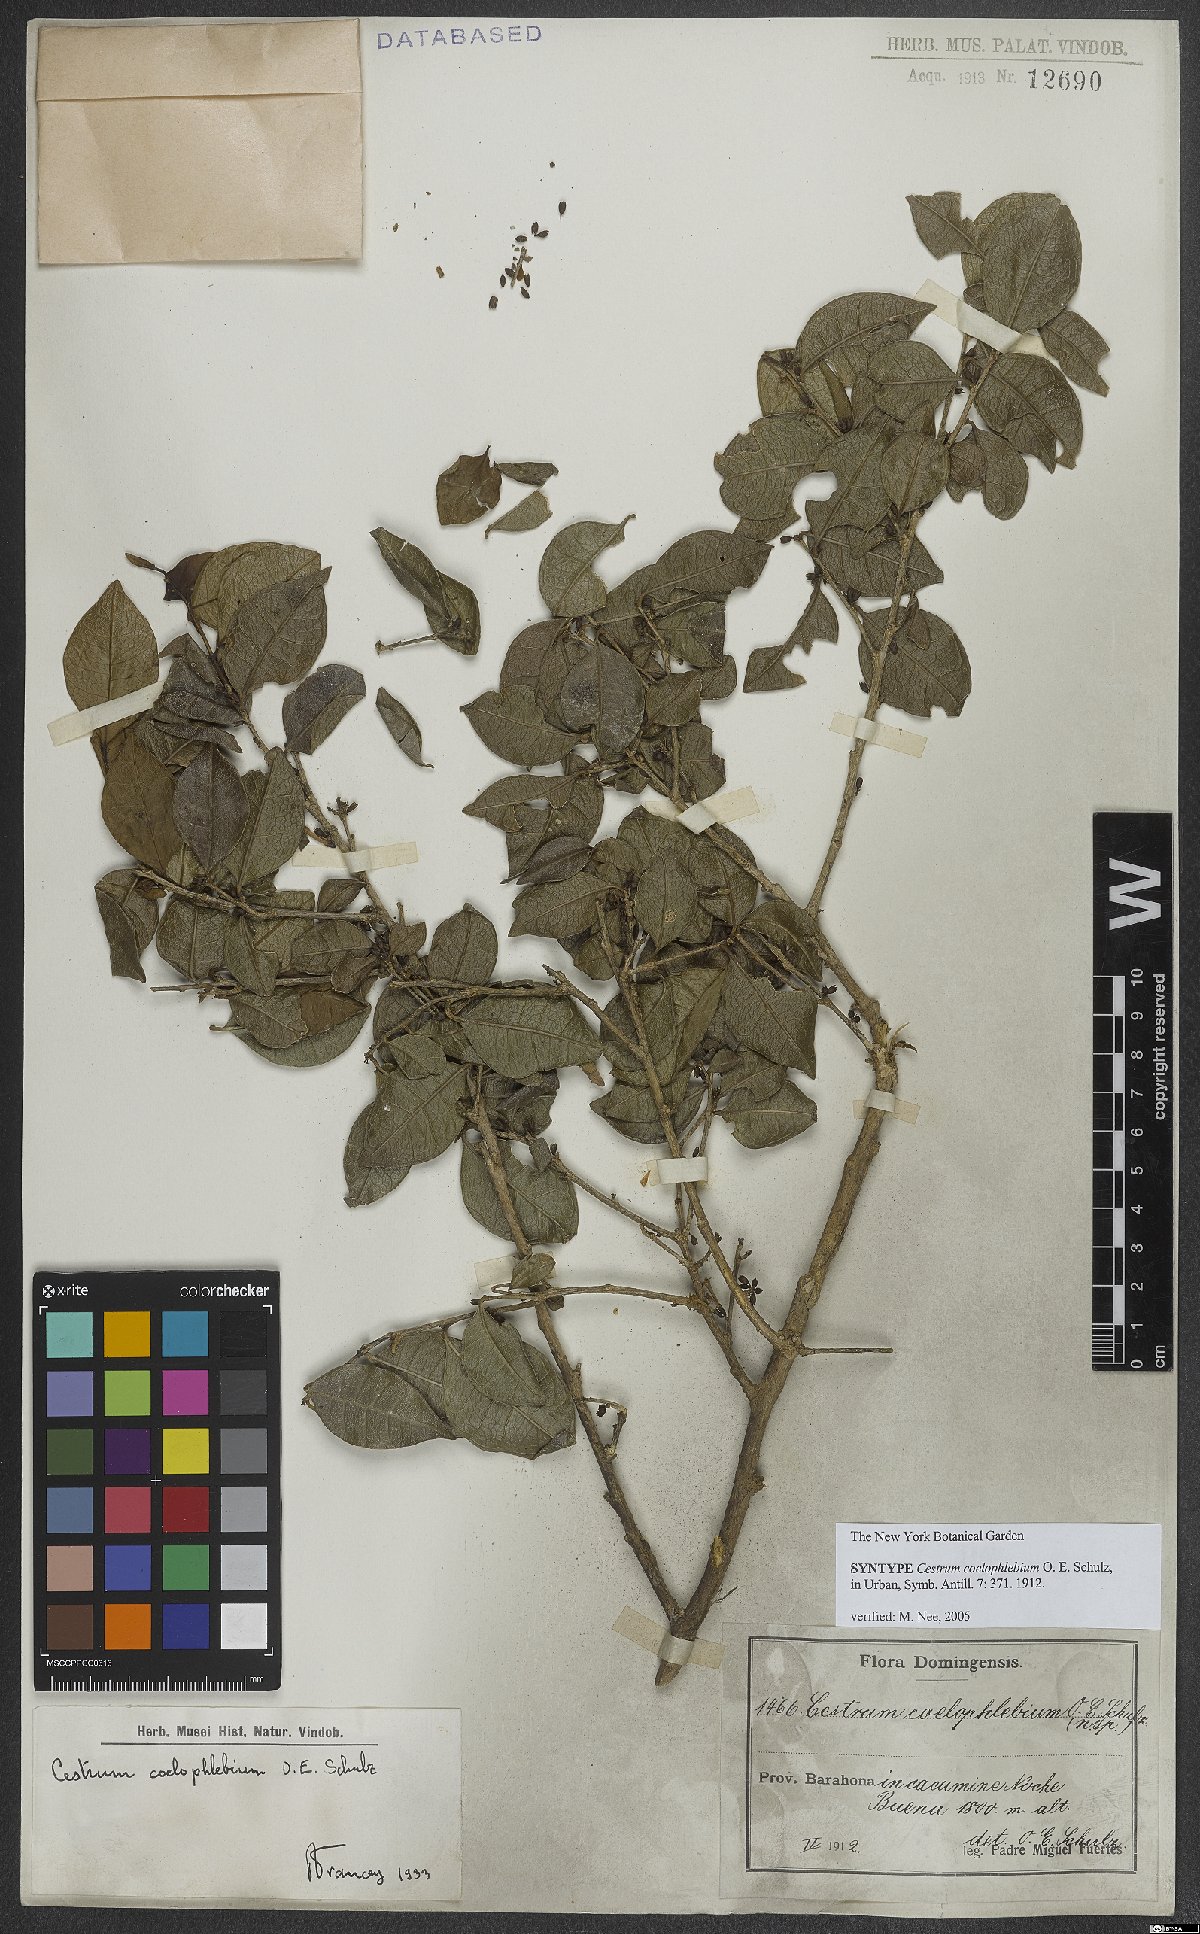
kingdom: Plantae
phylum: Tracheophyta
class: Magnoliopsida
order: Solanales
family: Solanaceae
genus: Cestrum
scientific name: Cestrum coelophlebium
